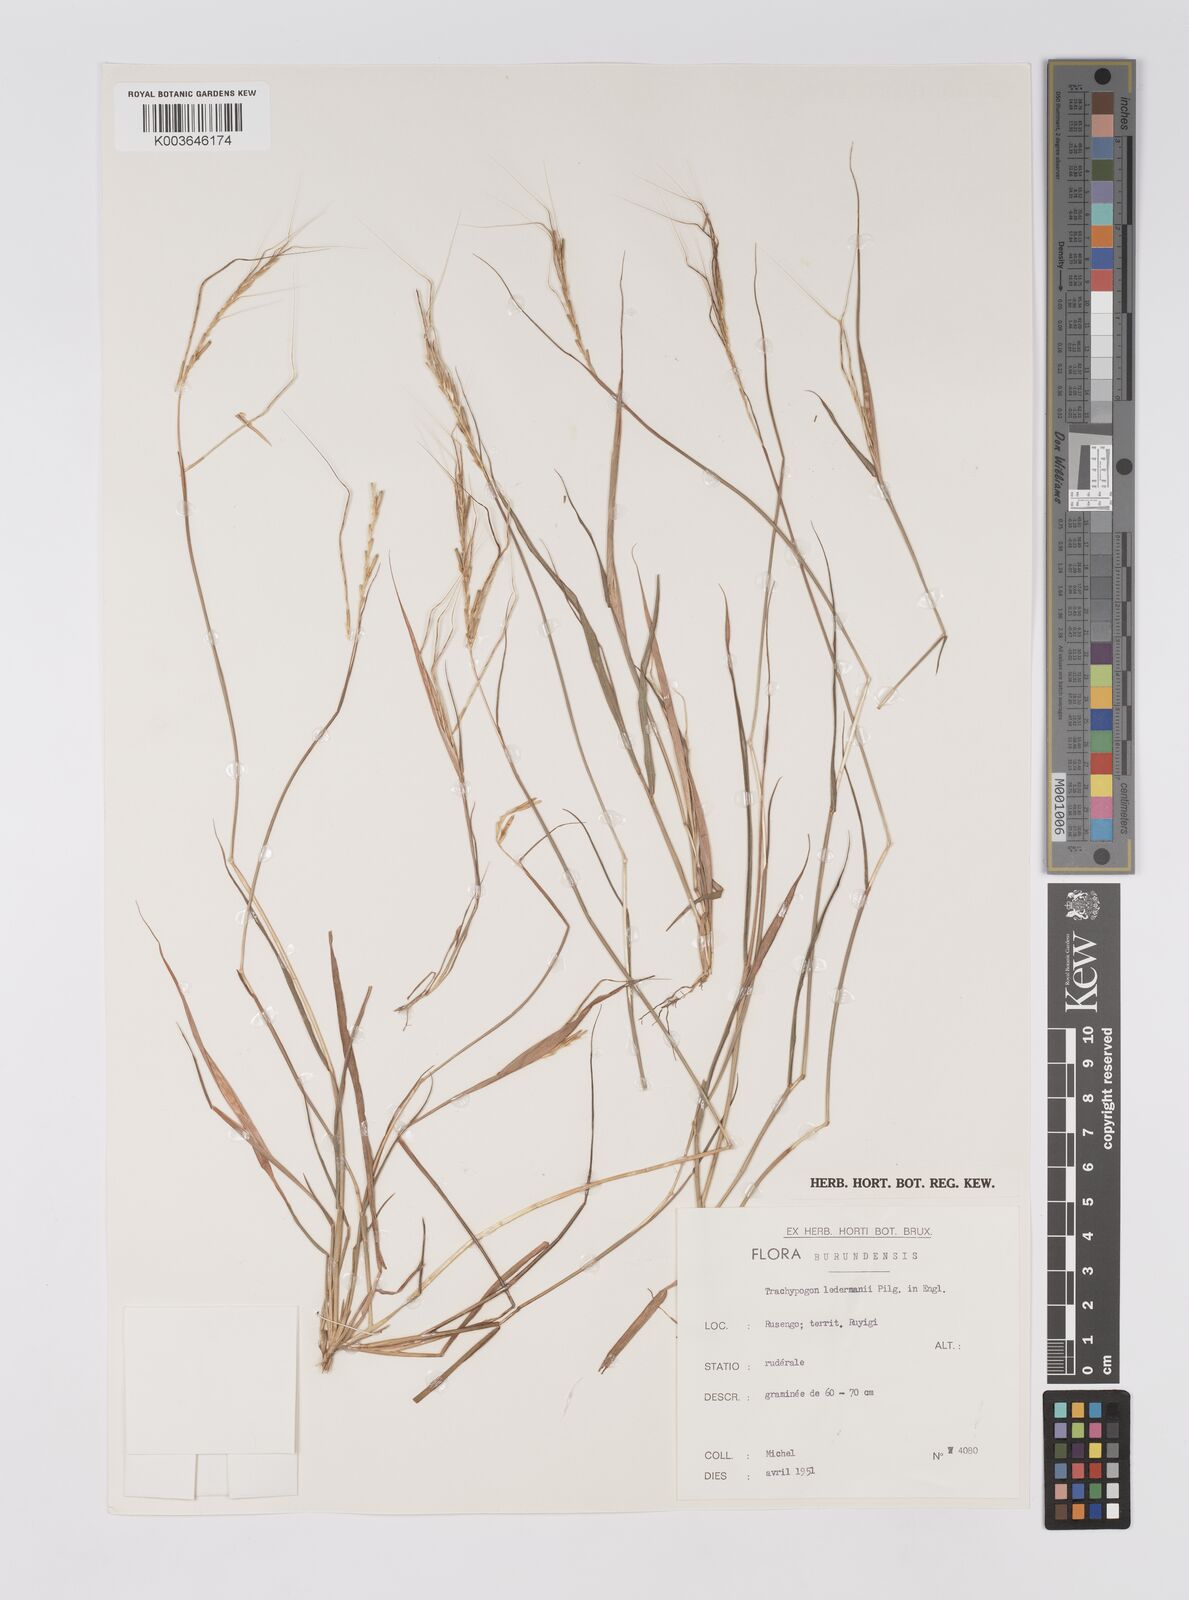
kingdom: Plantae
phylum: Tracheophyta
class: Liliopsida
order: Poales
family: Poaceae
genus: Trachypogon
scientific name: Trachypogon chevalieri
